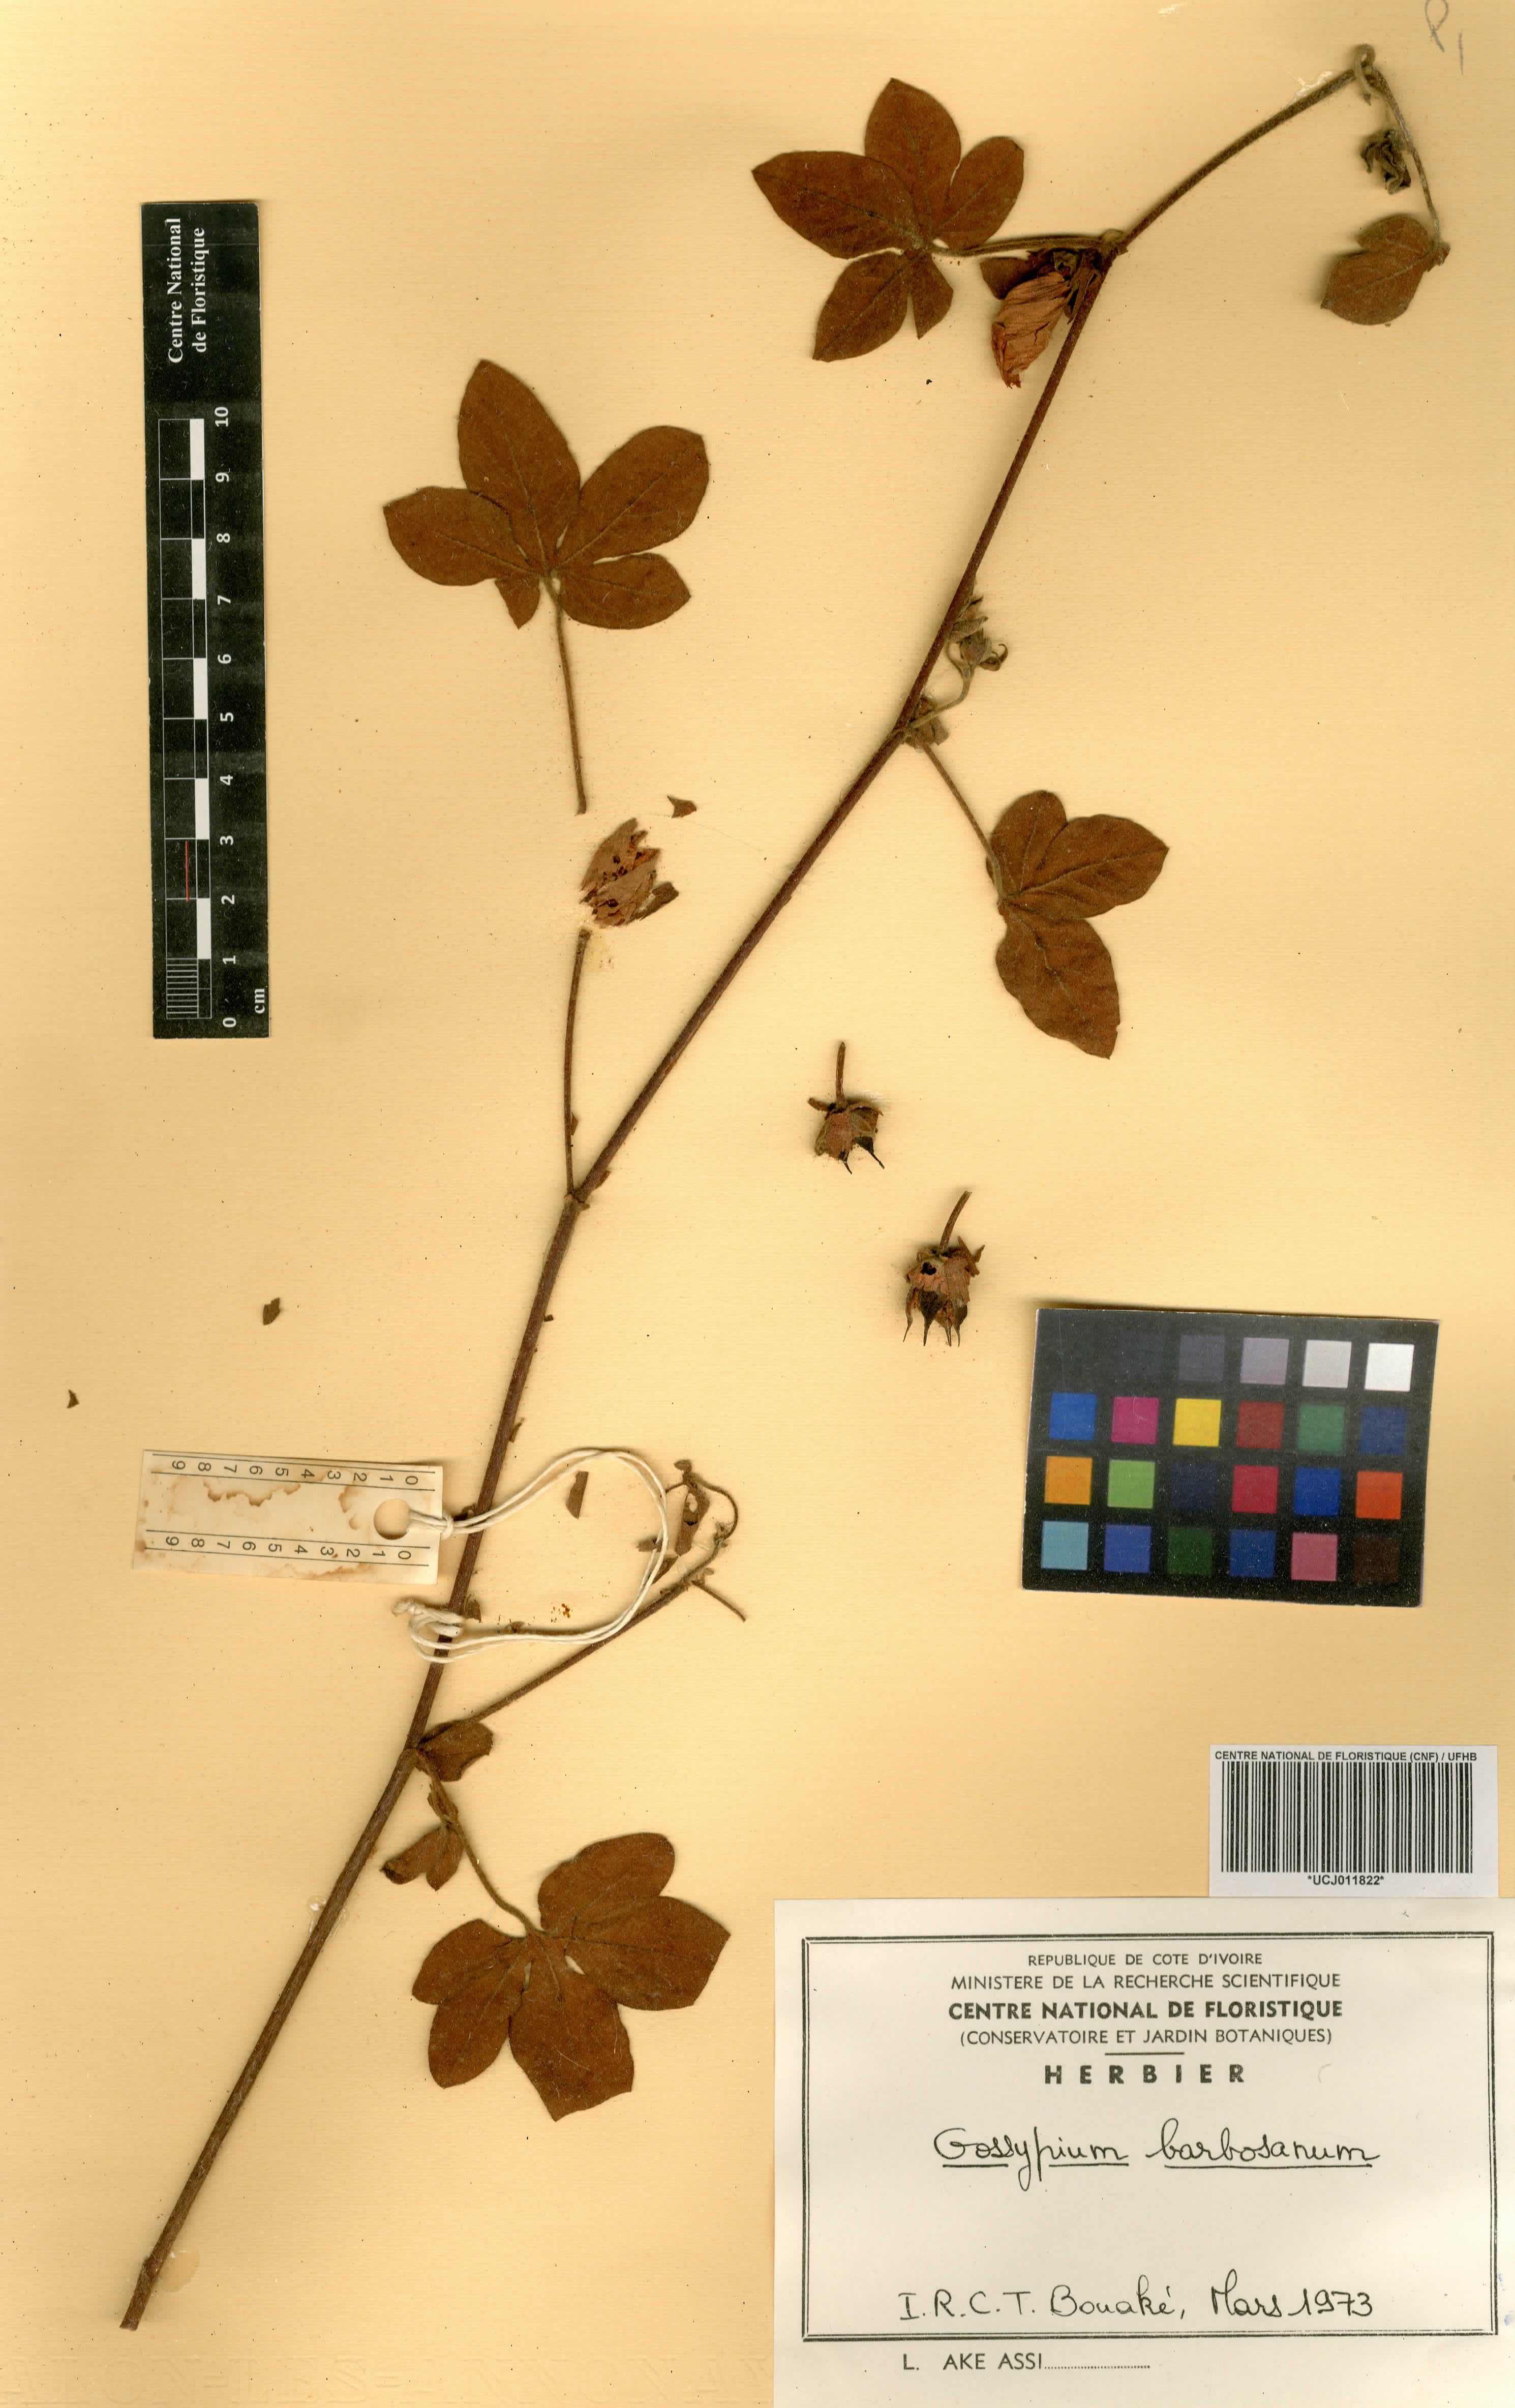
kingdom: Plantae
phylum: Tracheophyta
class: Magnoliopsida
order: Malvales
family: Malvaceae
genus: Gossypium
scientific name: Gossypium anomalum
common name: African wild cotton
